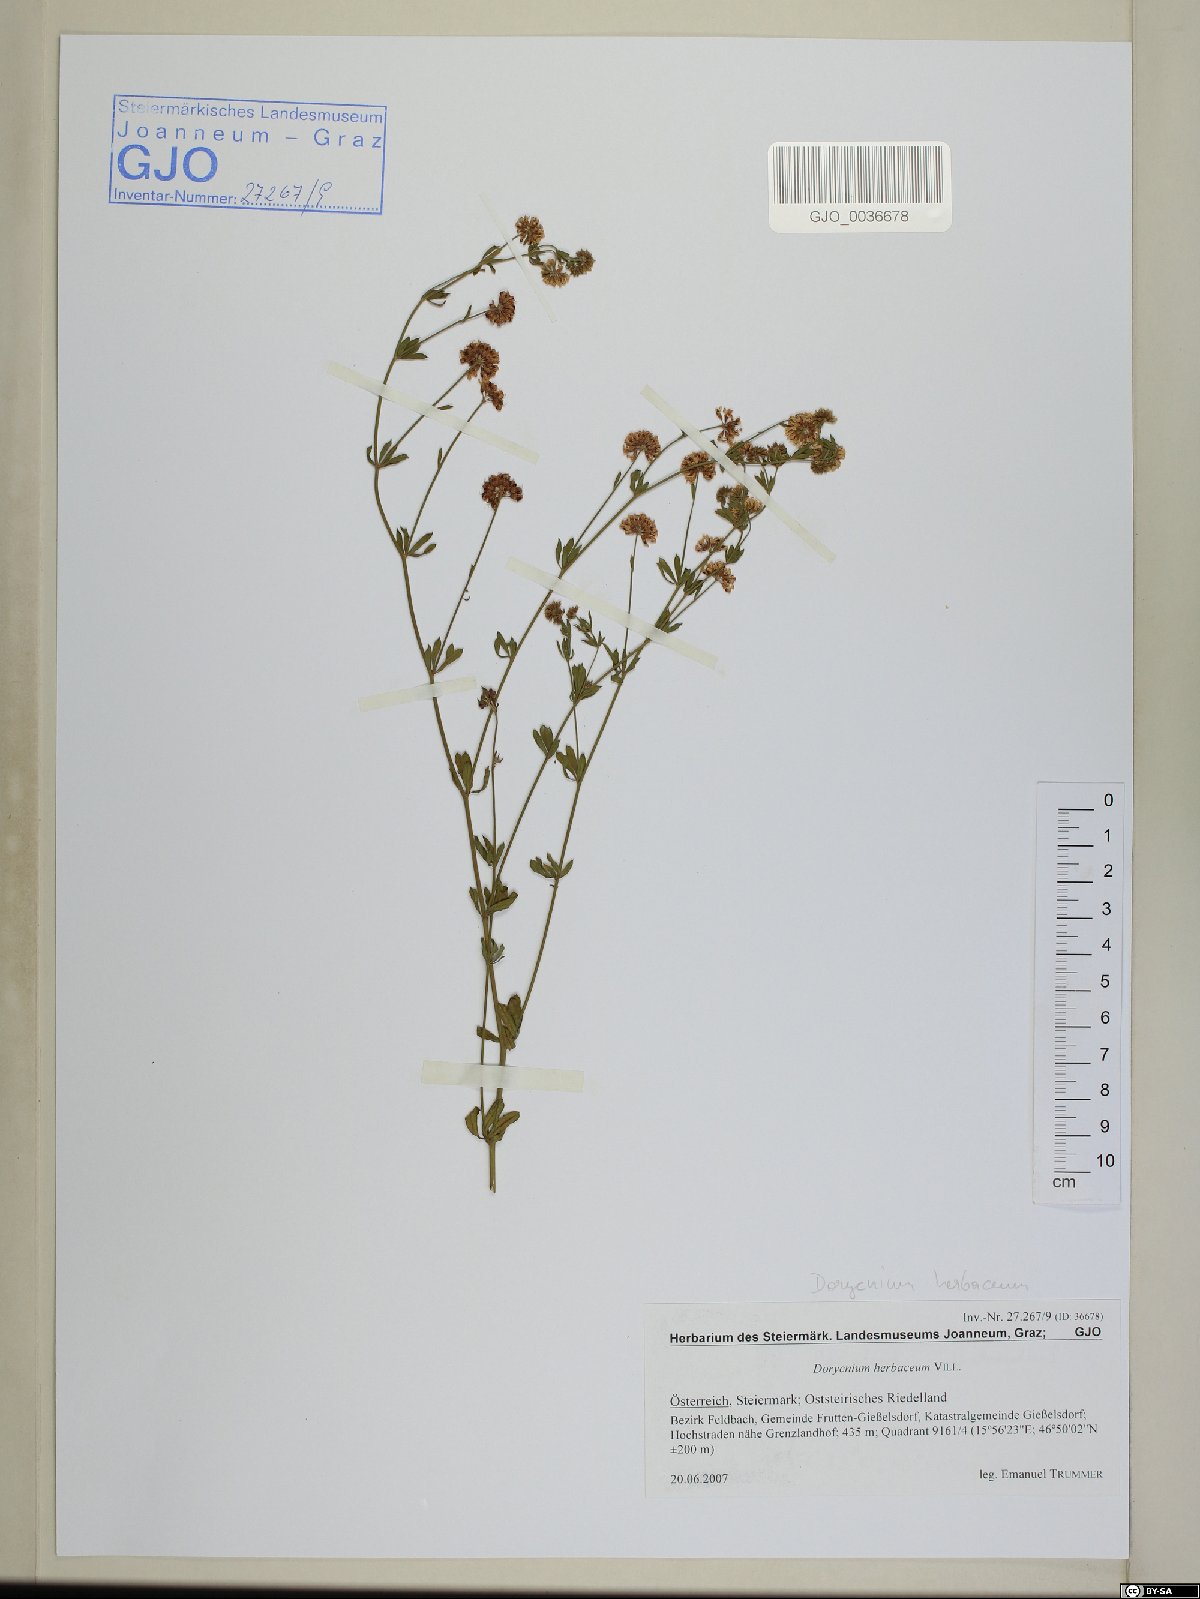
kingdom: Plantae
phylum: Tracheophyta
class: Magnoliopsida
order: Fabales
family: Fabaceae
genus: Lotus
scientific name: Lotus herbaceus
